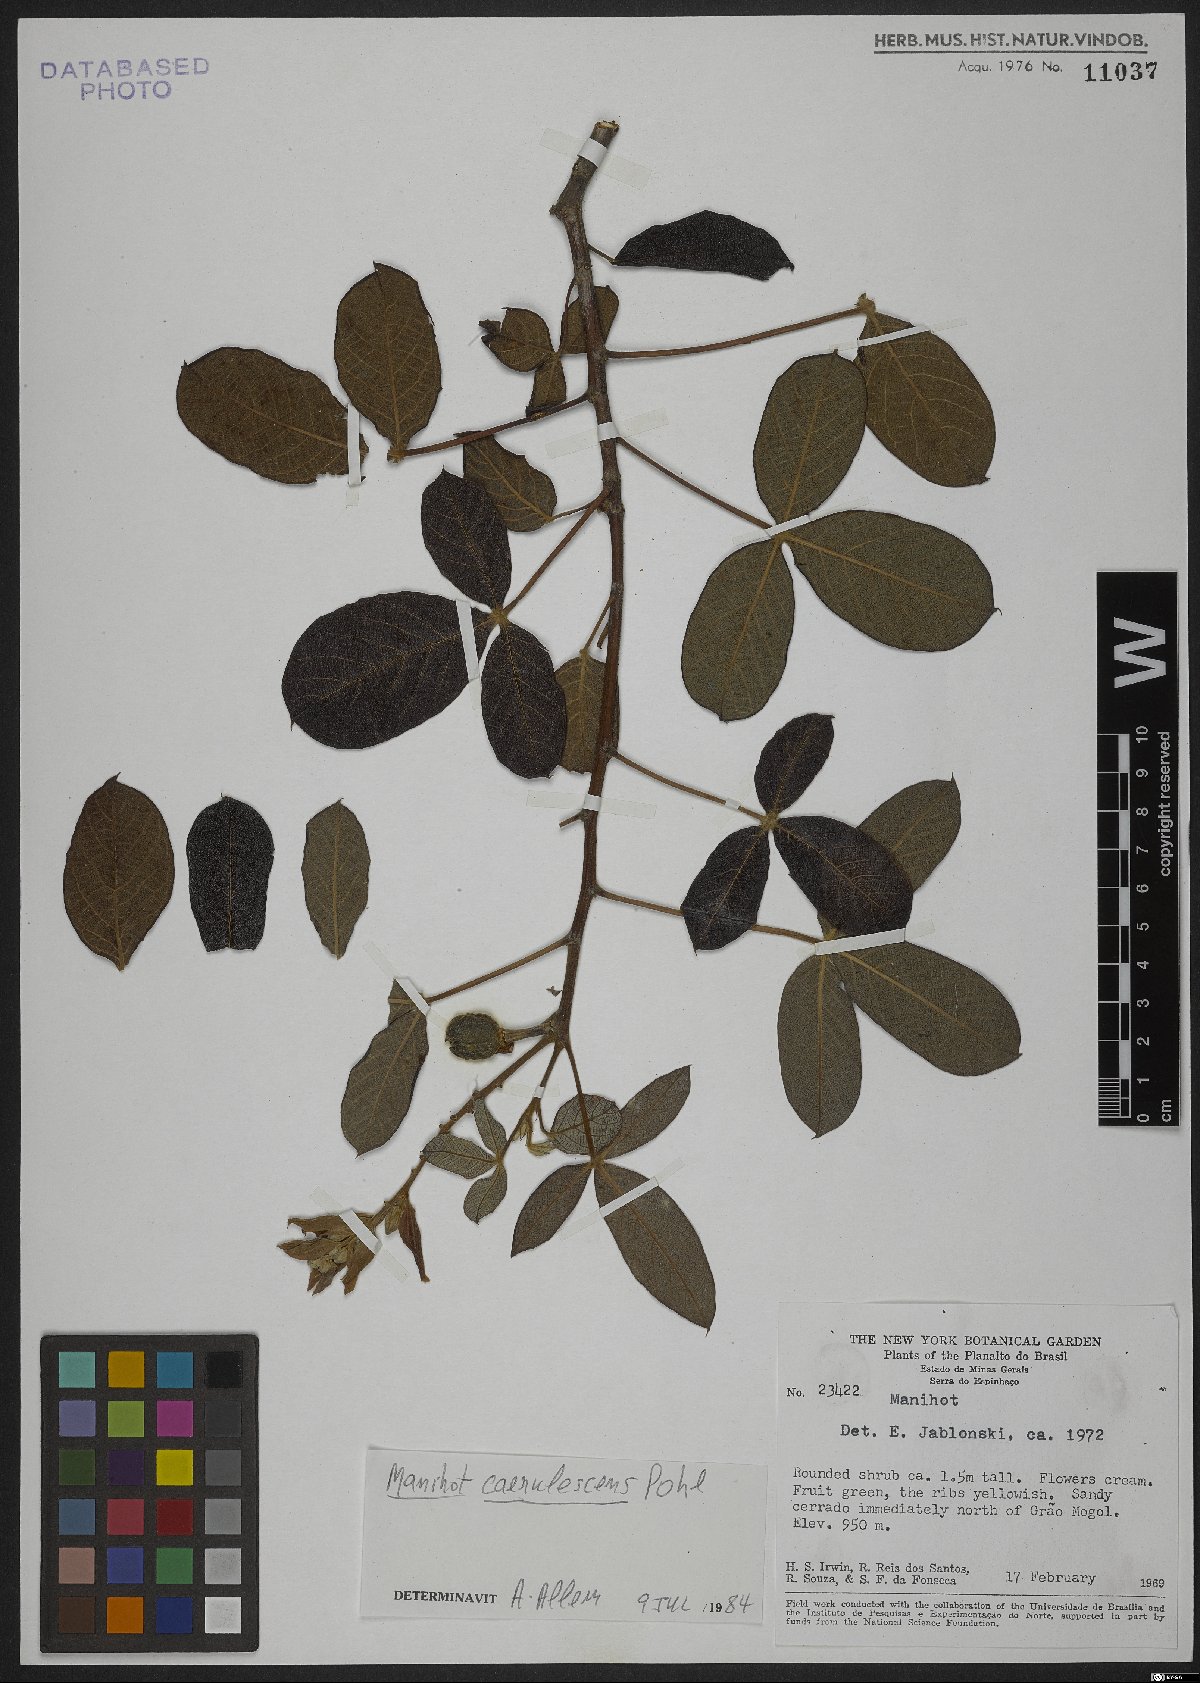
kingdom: Plantae
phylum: Tracheophyta
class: Magnoliopsida
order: Malpighiales
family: Euphorbiaceae
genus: Manihot
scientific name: Manihot caerulescens
